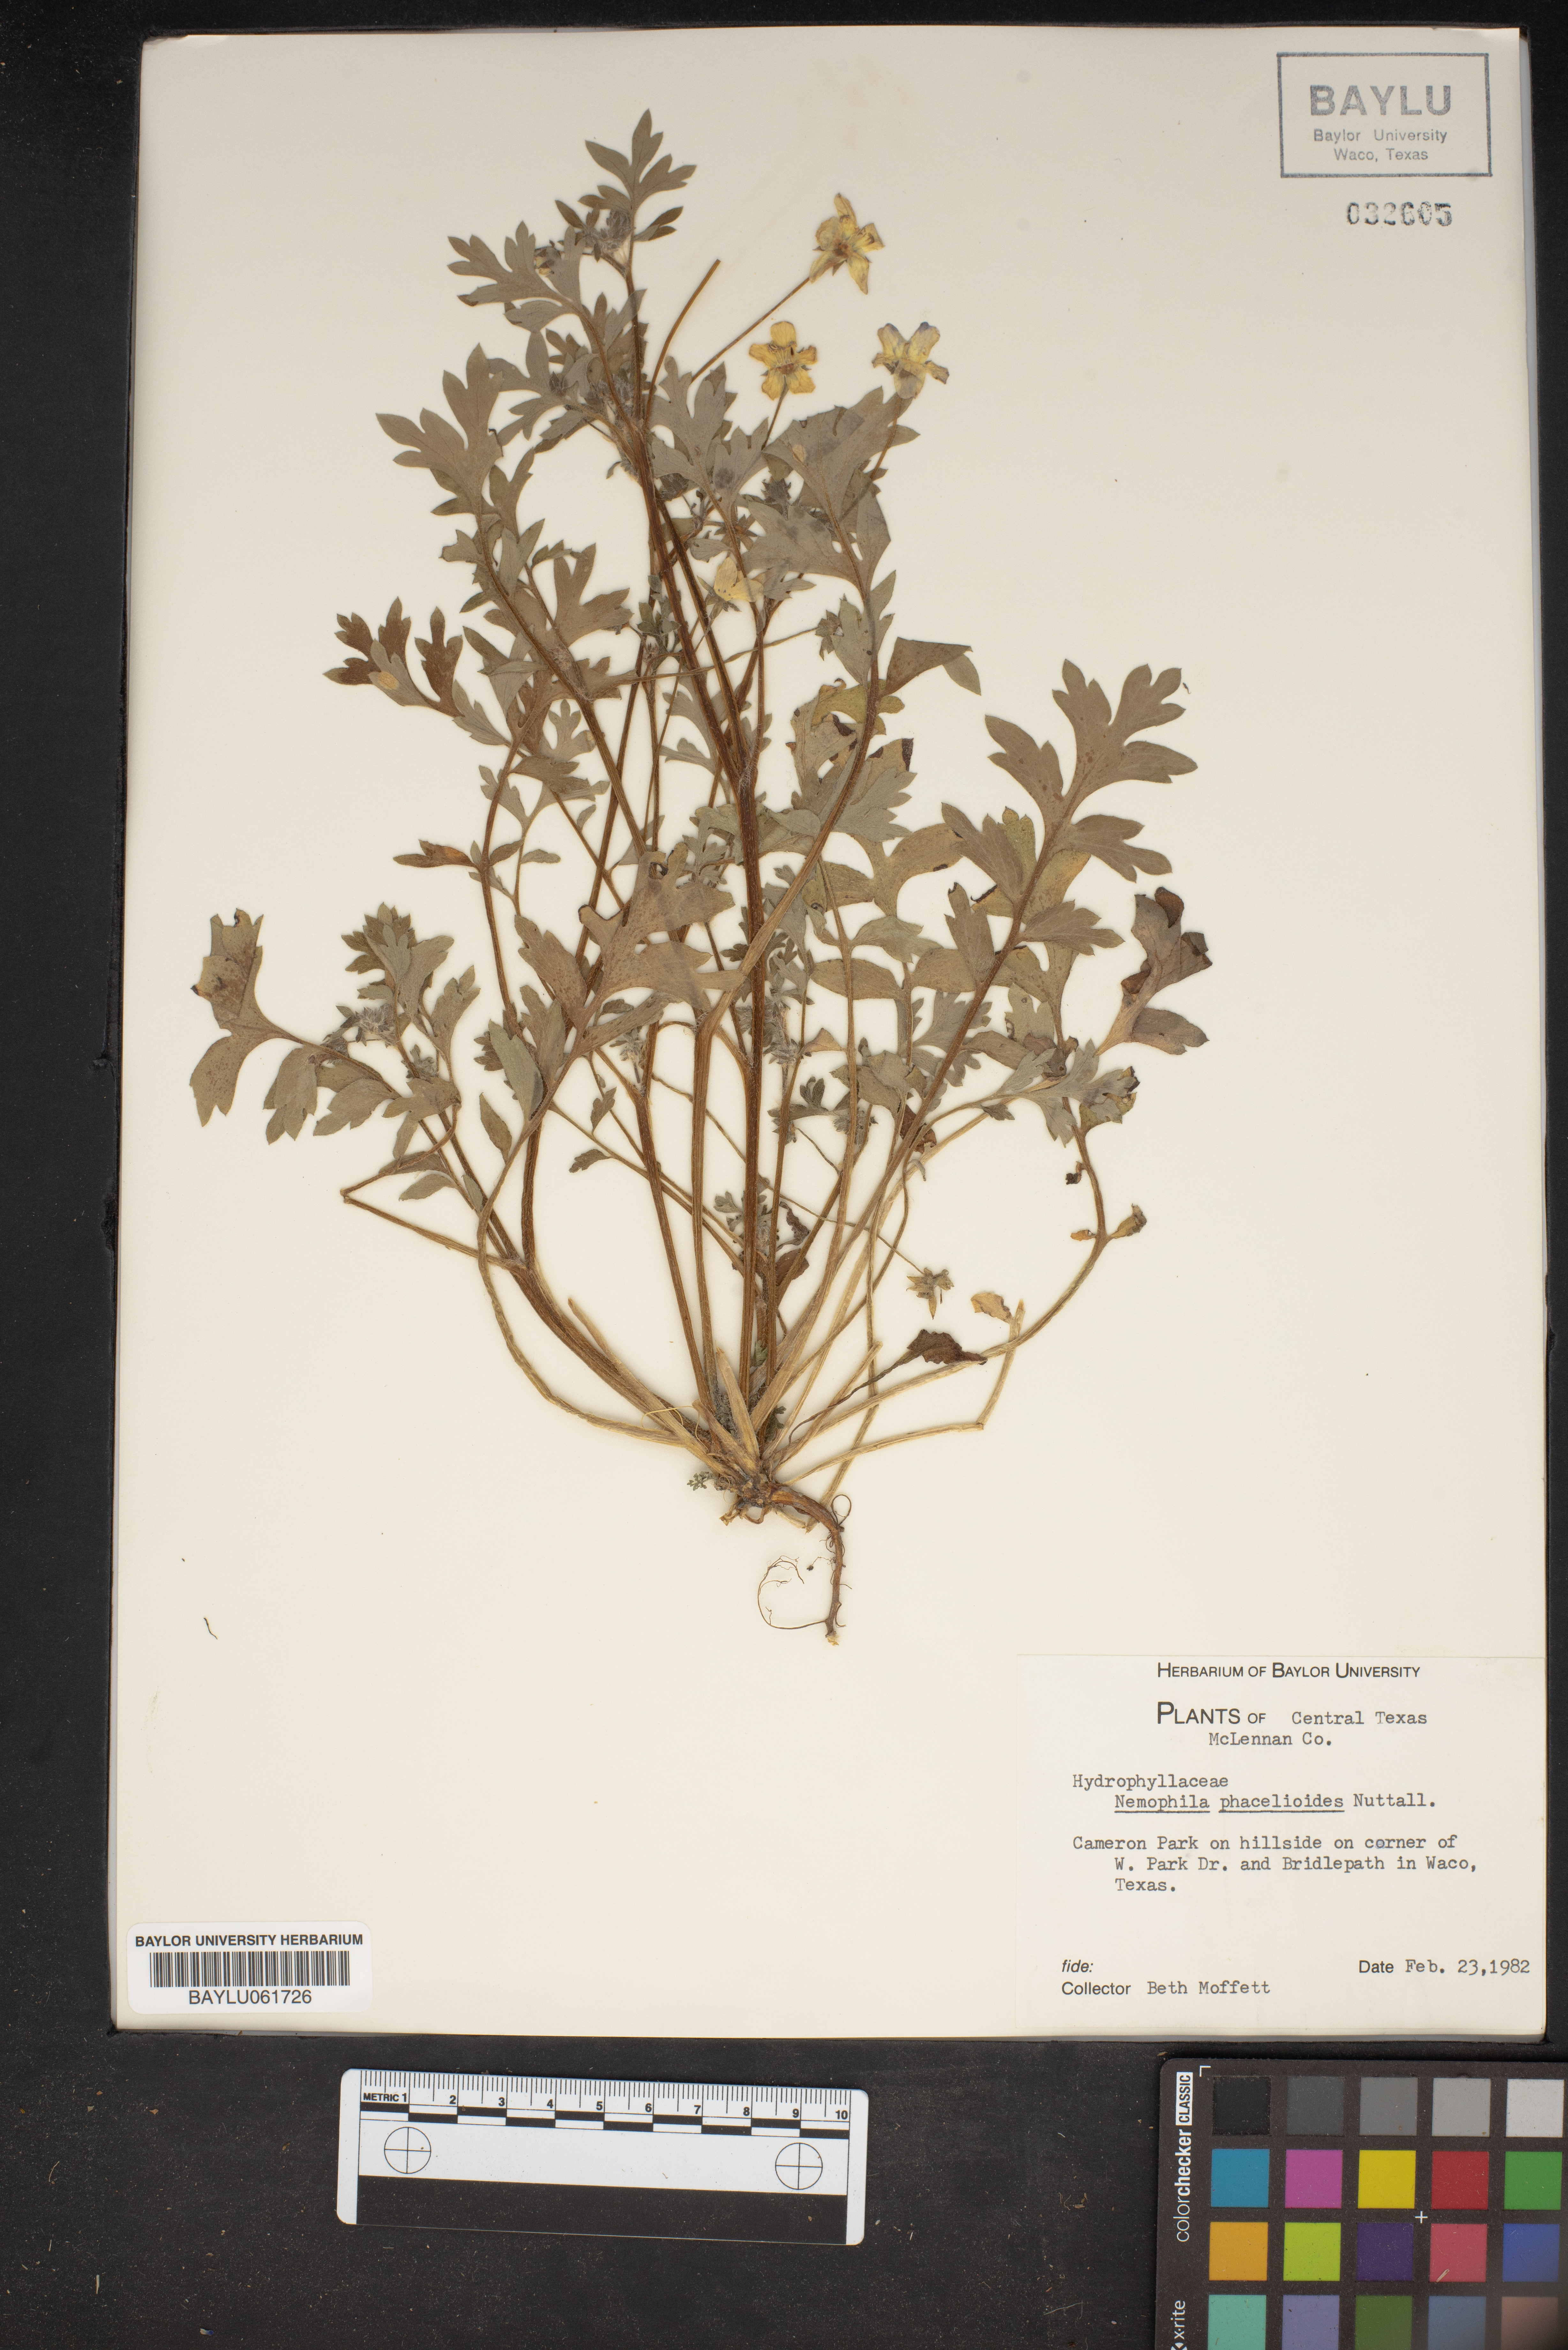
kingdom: Plantae
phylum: Tracheophyta
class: Magnoliopsida
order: Boraginales
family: Hydrophyllaceae
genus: Nemophila
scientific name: Nemophila phacelioides
